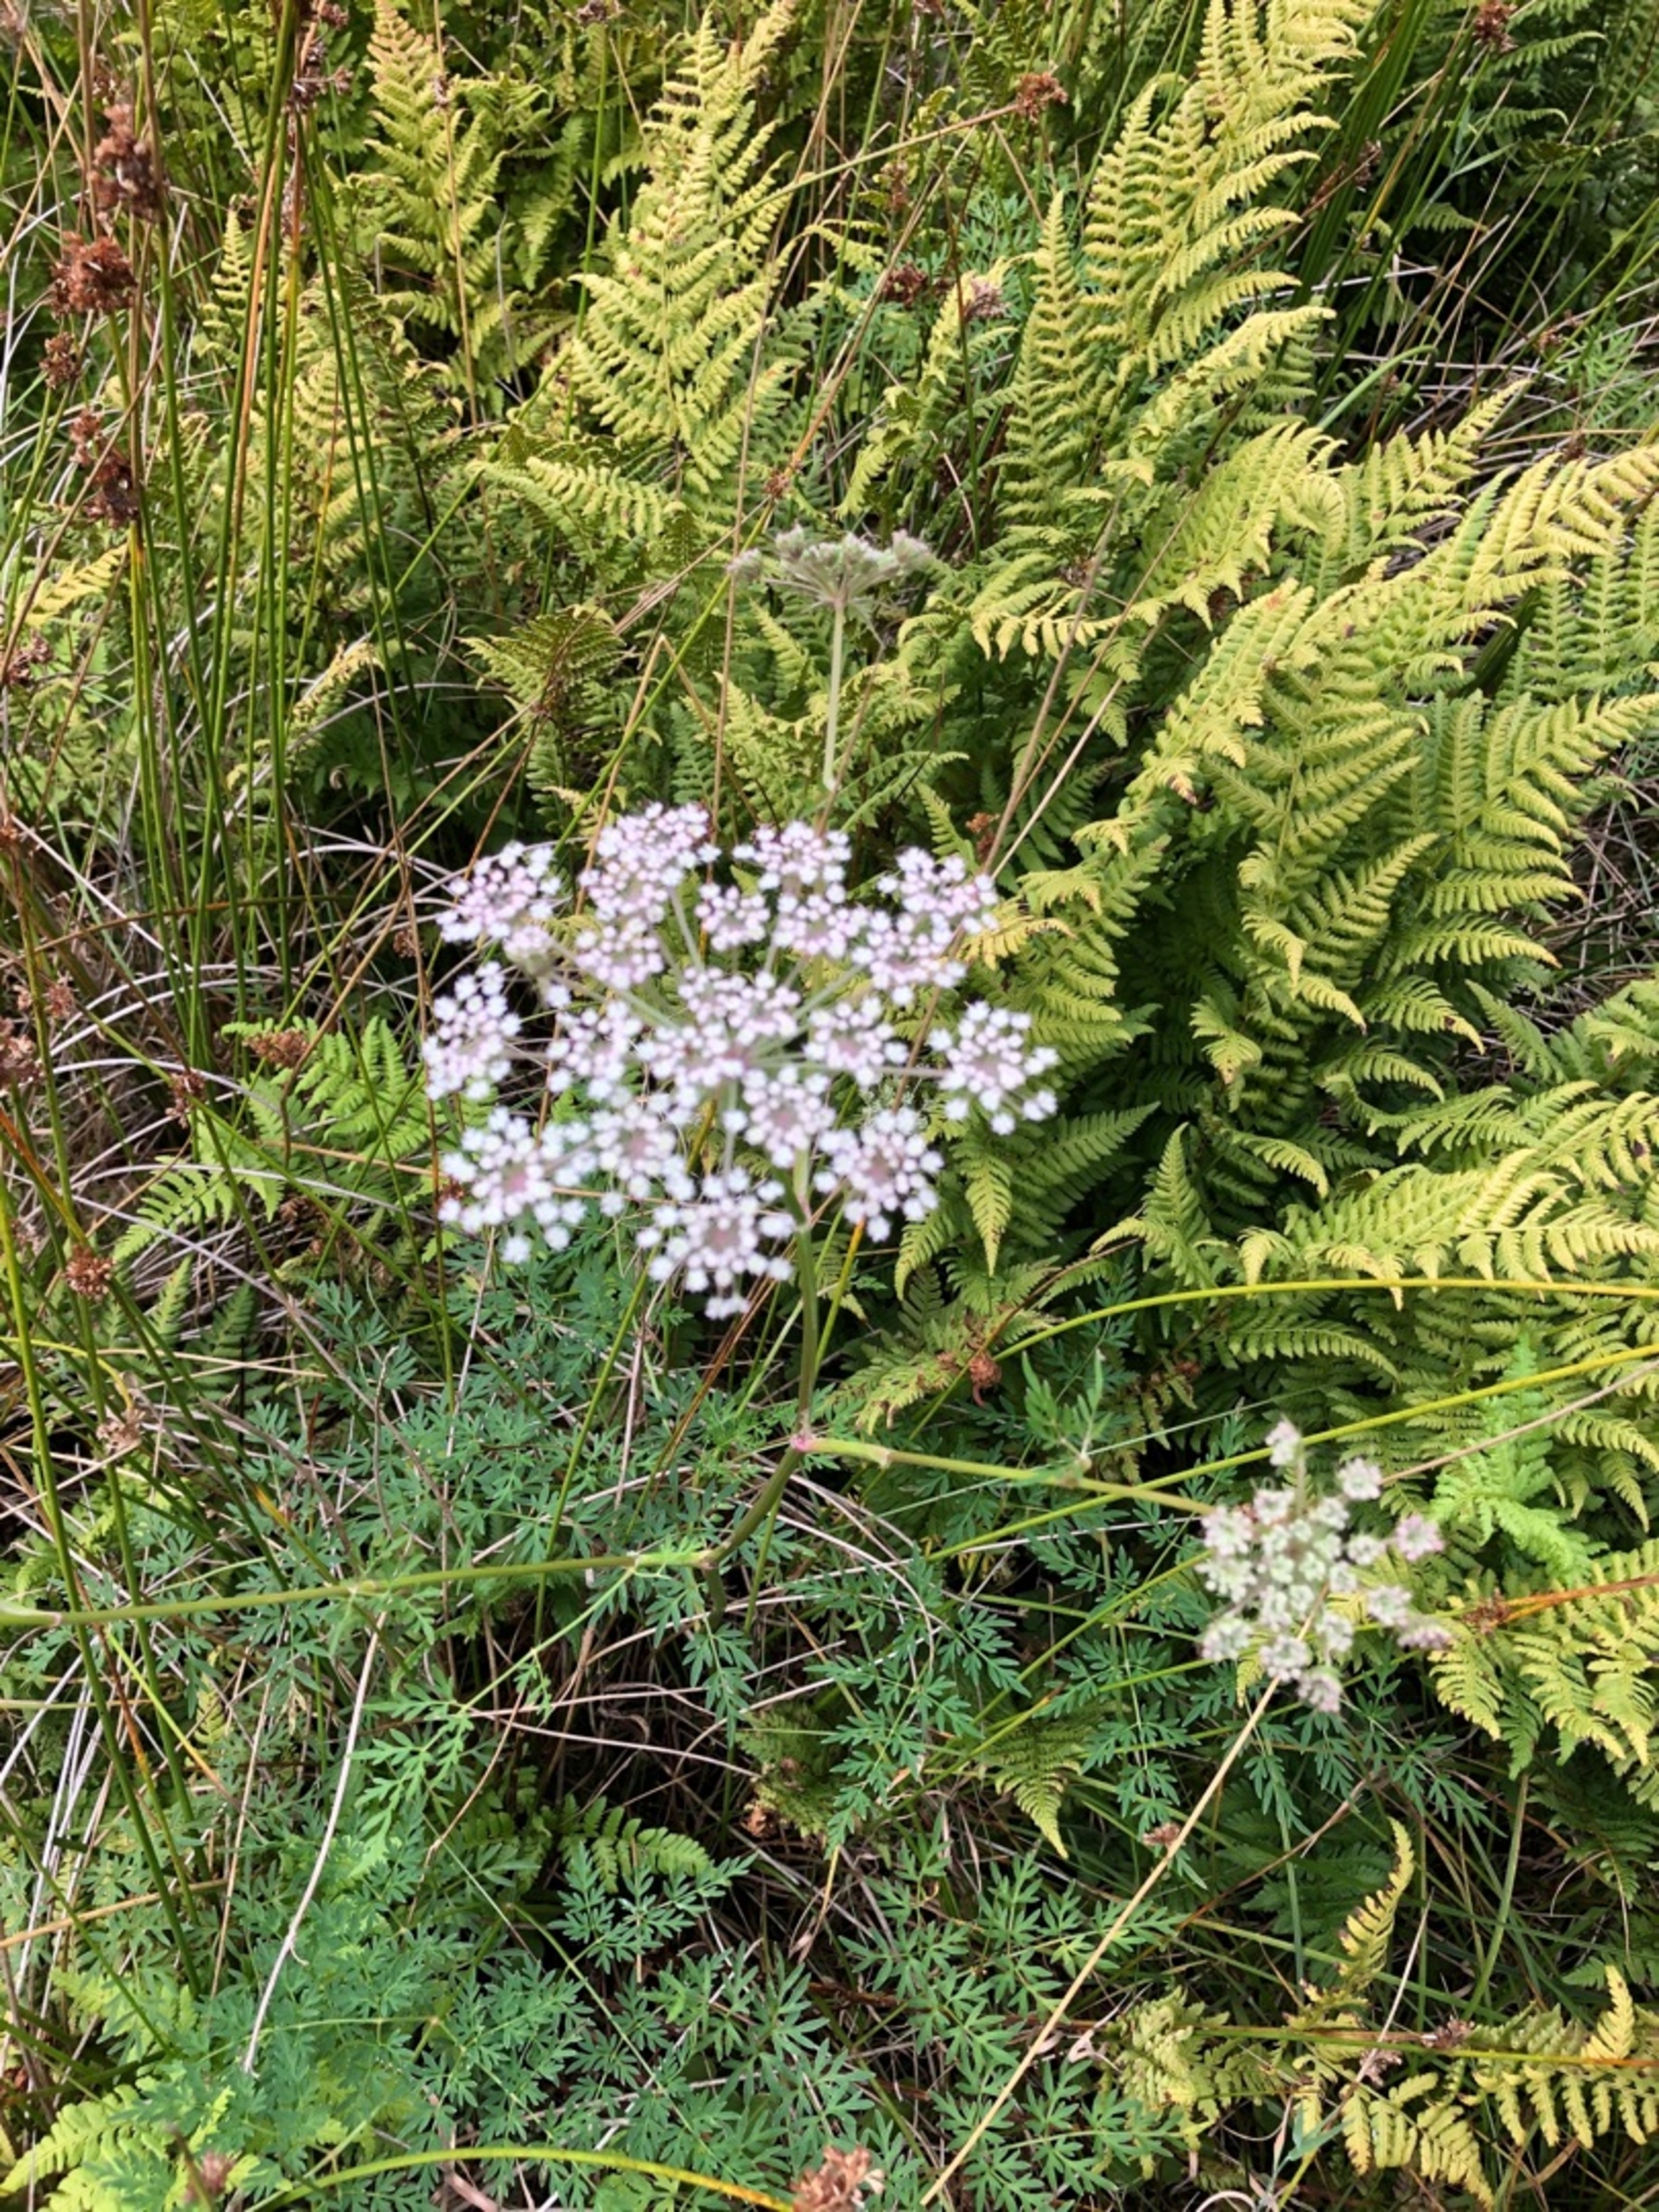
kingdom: Plantae
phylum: Tracheophyta
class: Magnoliopsida
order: Apiales
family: Apiaceae
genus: Thysselinum
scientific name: Thysselinum palustre
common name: Kær-svovlrod
